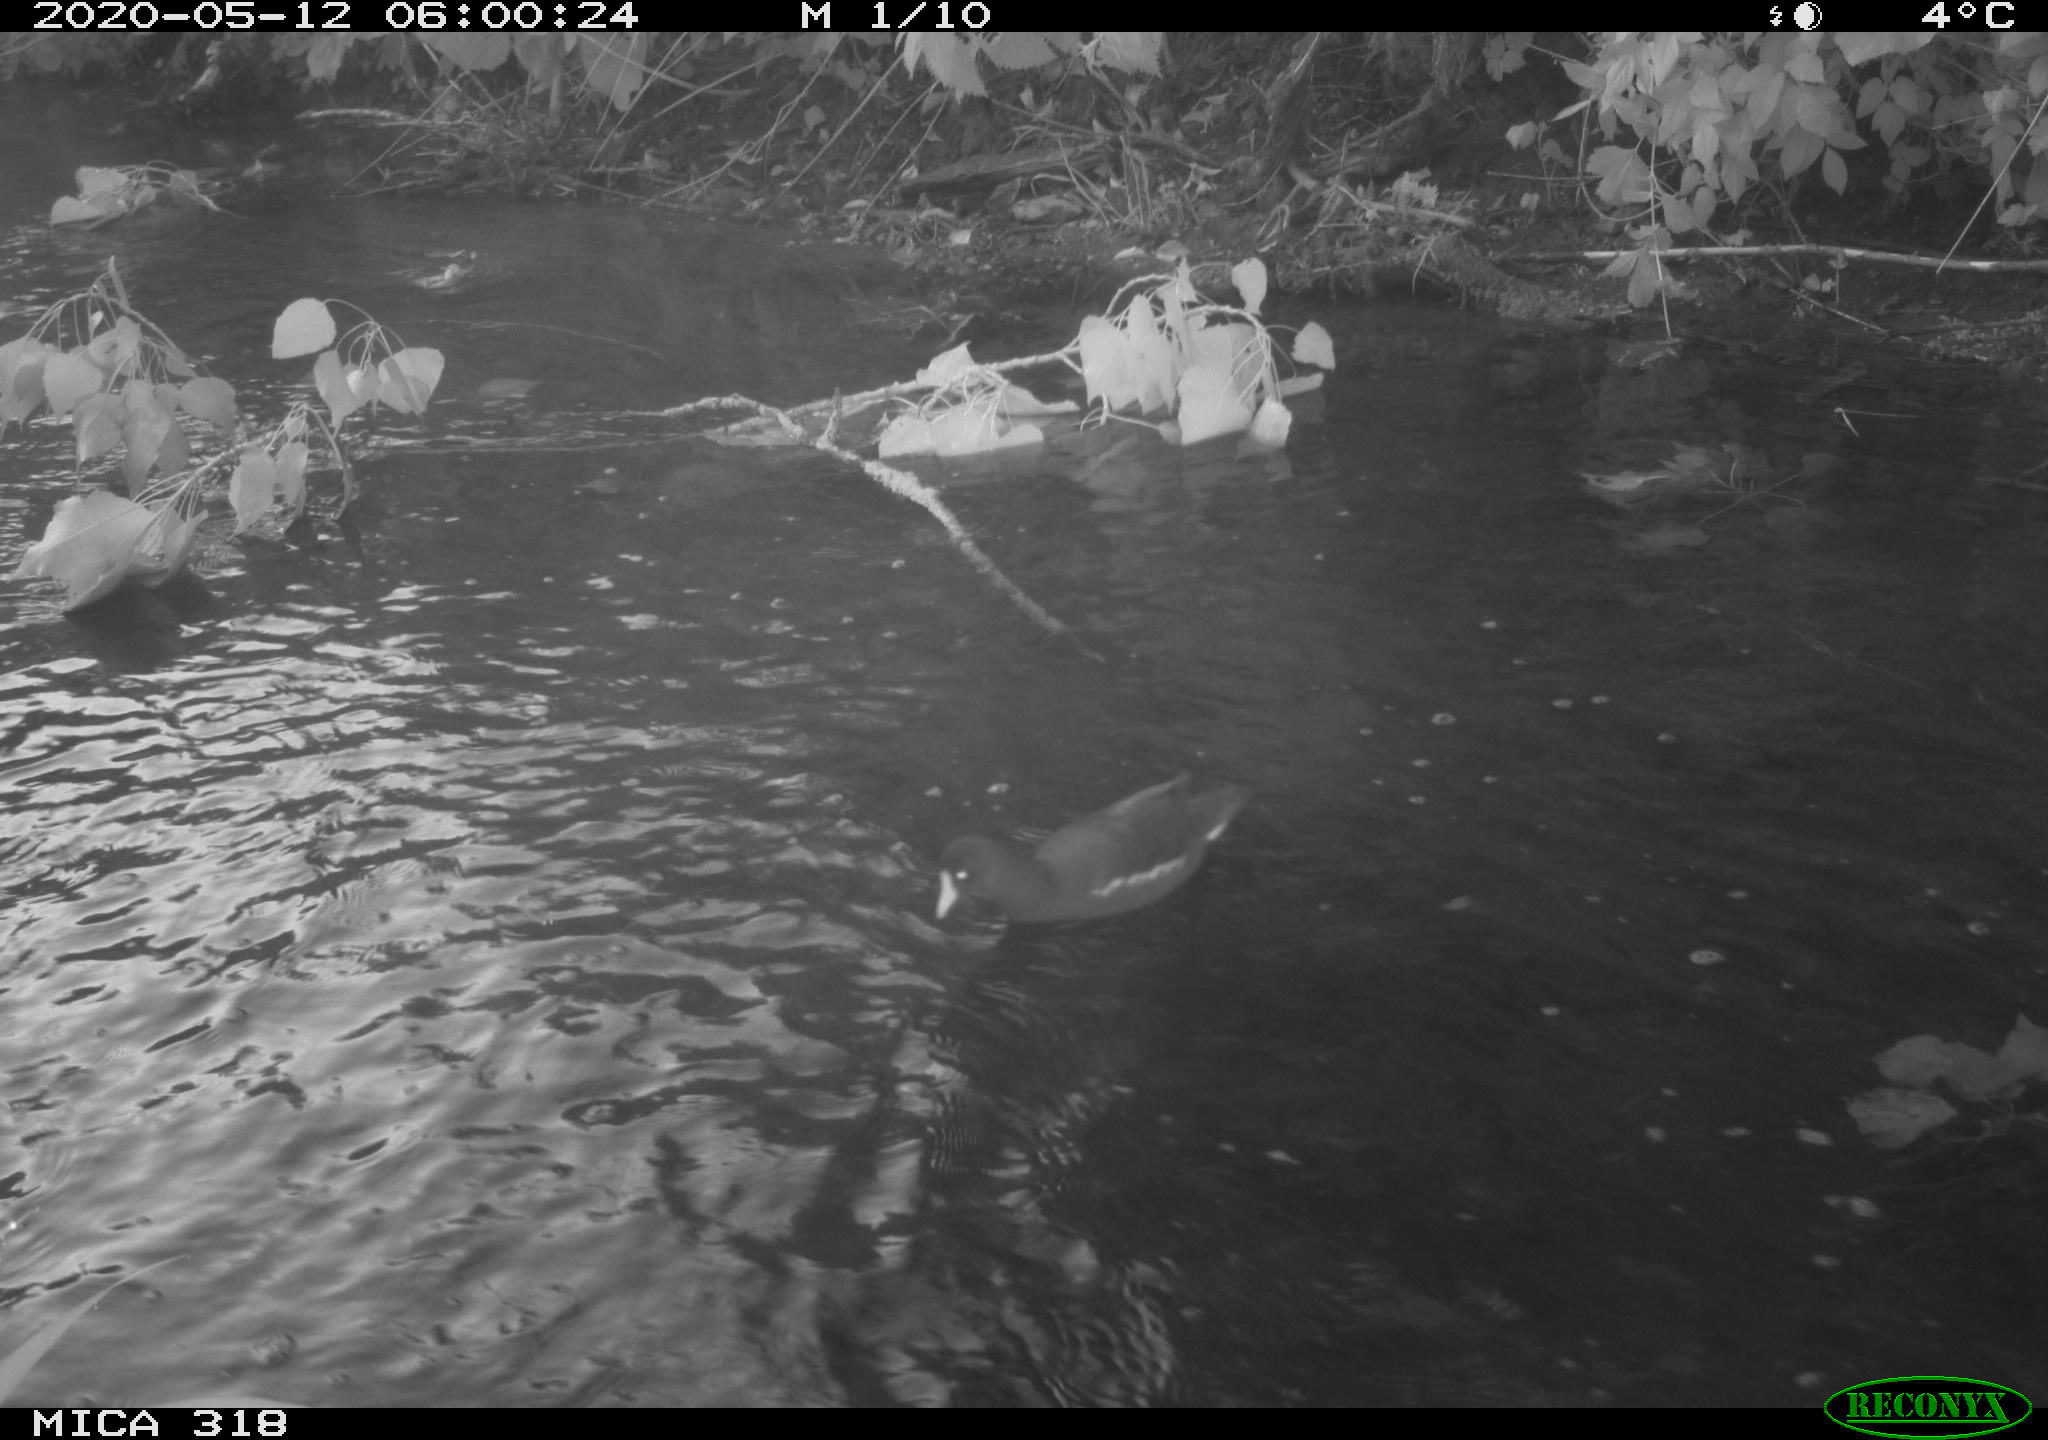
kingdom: Animalia
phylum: Chordata
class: Aves
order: Anseriformes
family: Anatidae
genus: Anas
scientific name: Anas platyrhynchos
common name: Mallard
